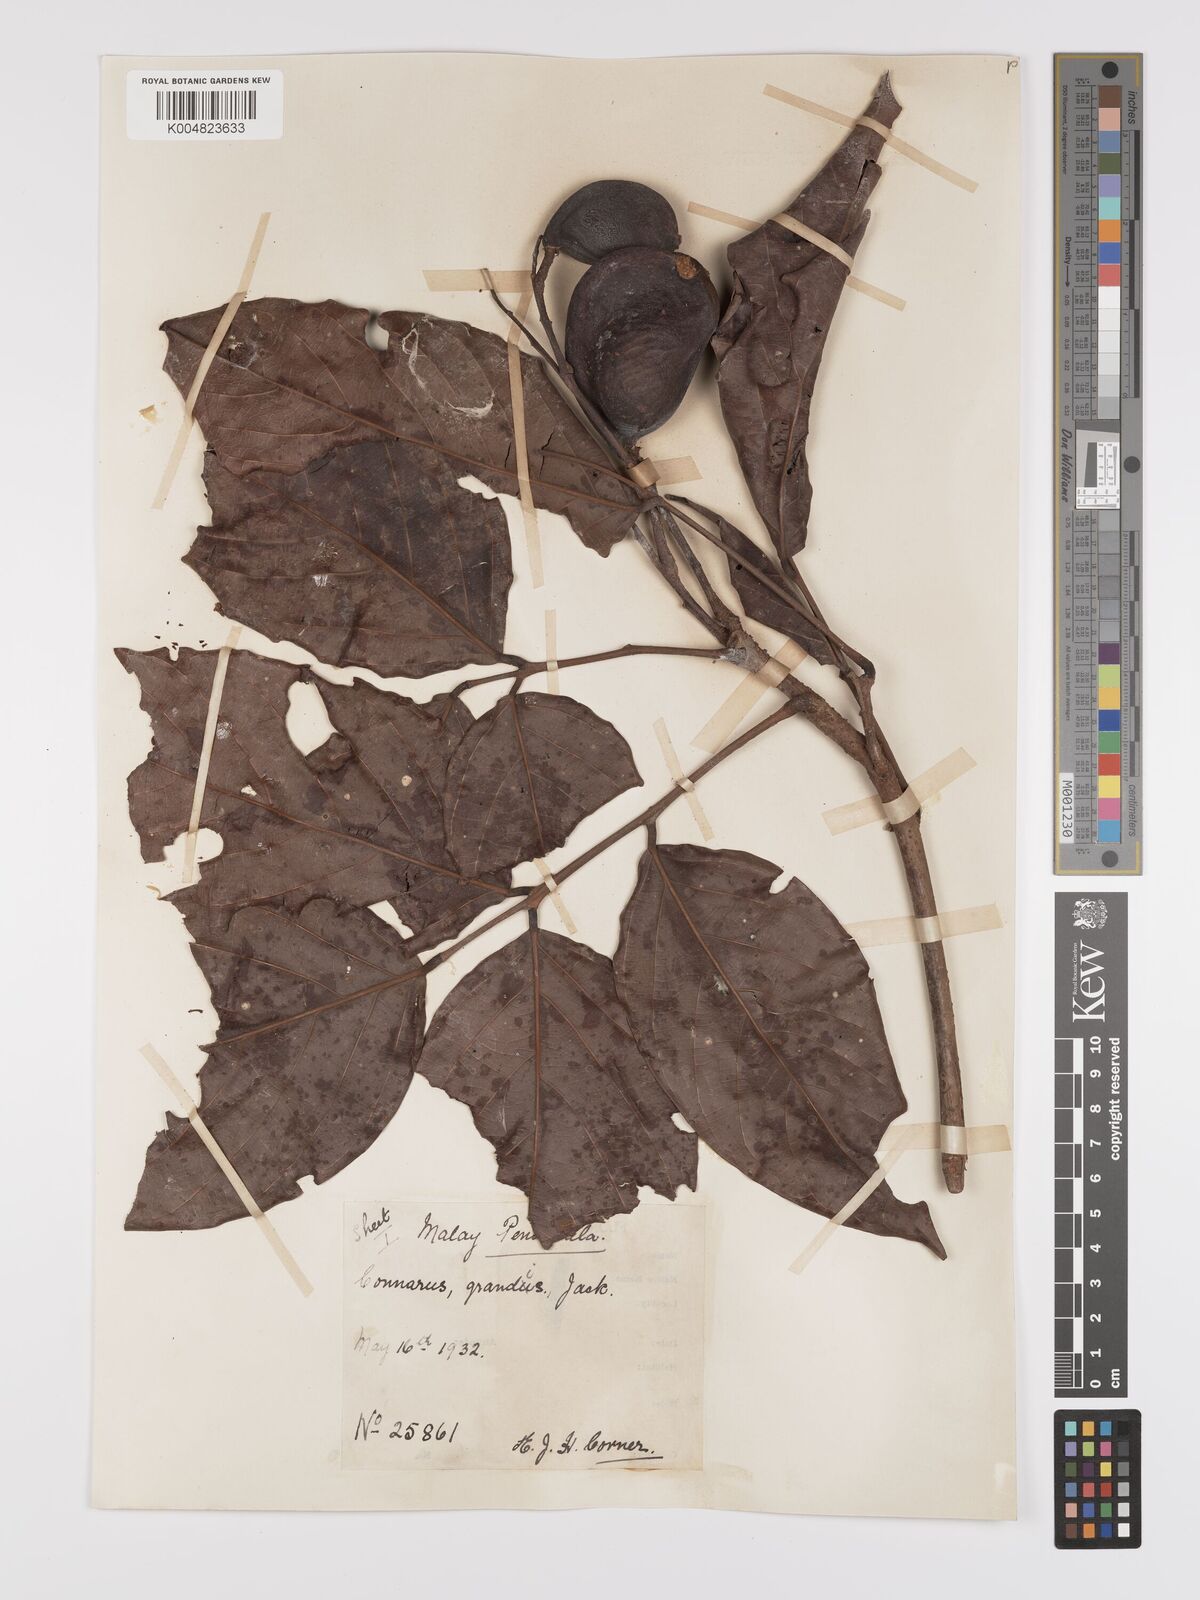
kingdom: Plantae
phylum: Tracheophyta
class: Magnoliopsida
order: Oxalidales
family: Connaraceae
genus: Connarus
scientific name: Connarus grandis
